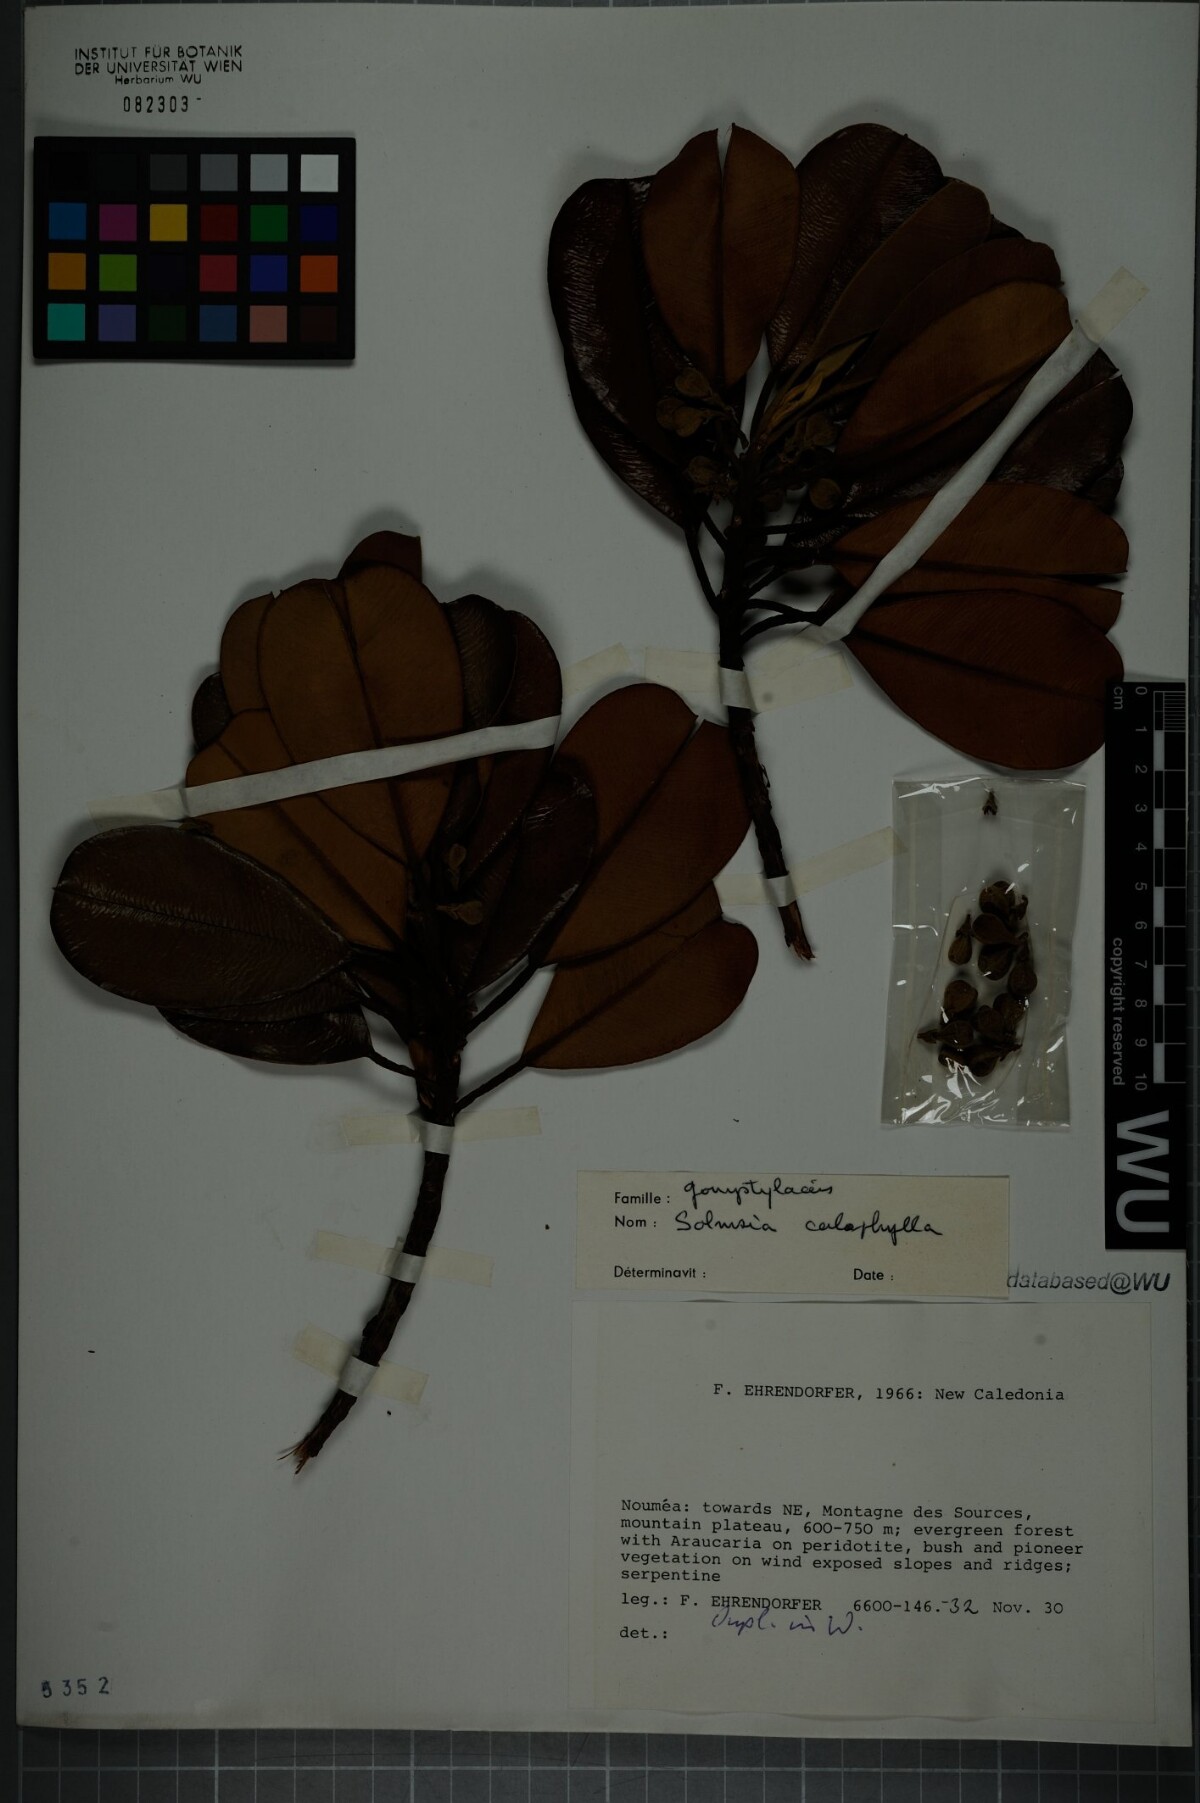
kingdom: Plantae
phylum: Tracheophyta
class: Magnoliopsida
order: Malvales
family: Thymelaeaceae
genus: Solmsia
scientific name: Solmsia calophylla
